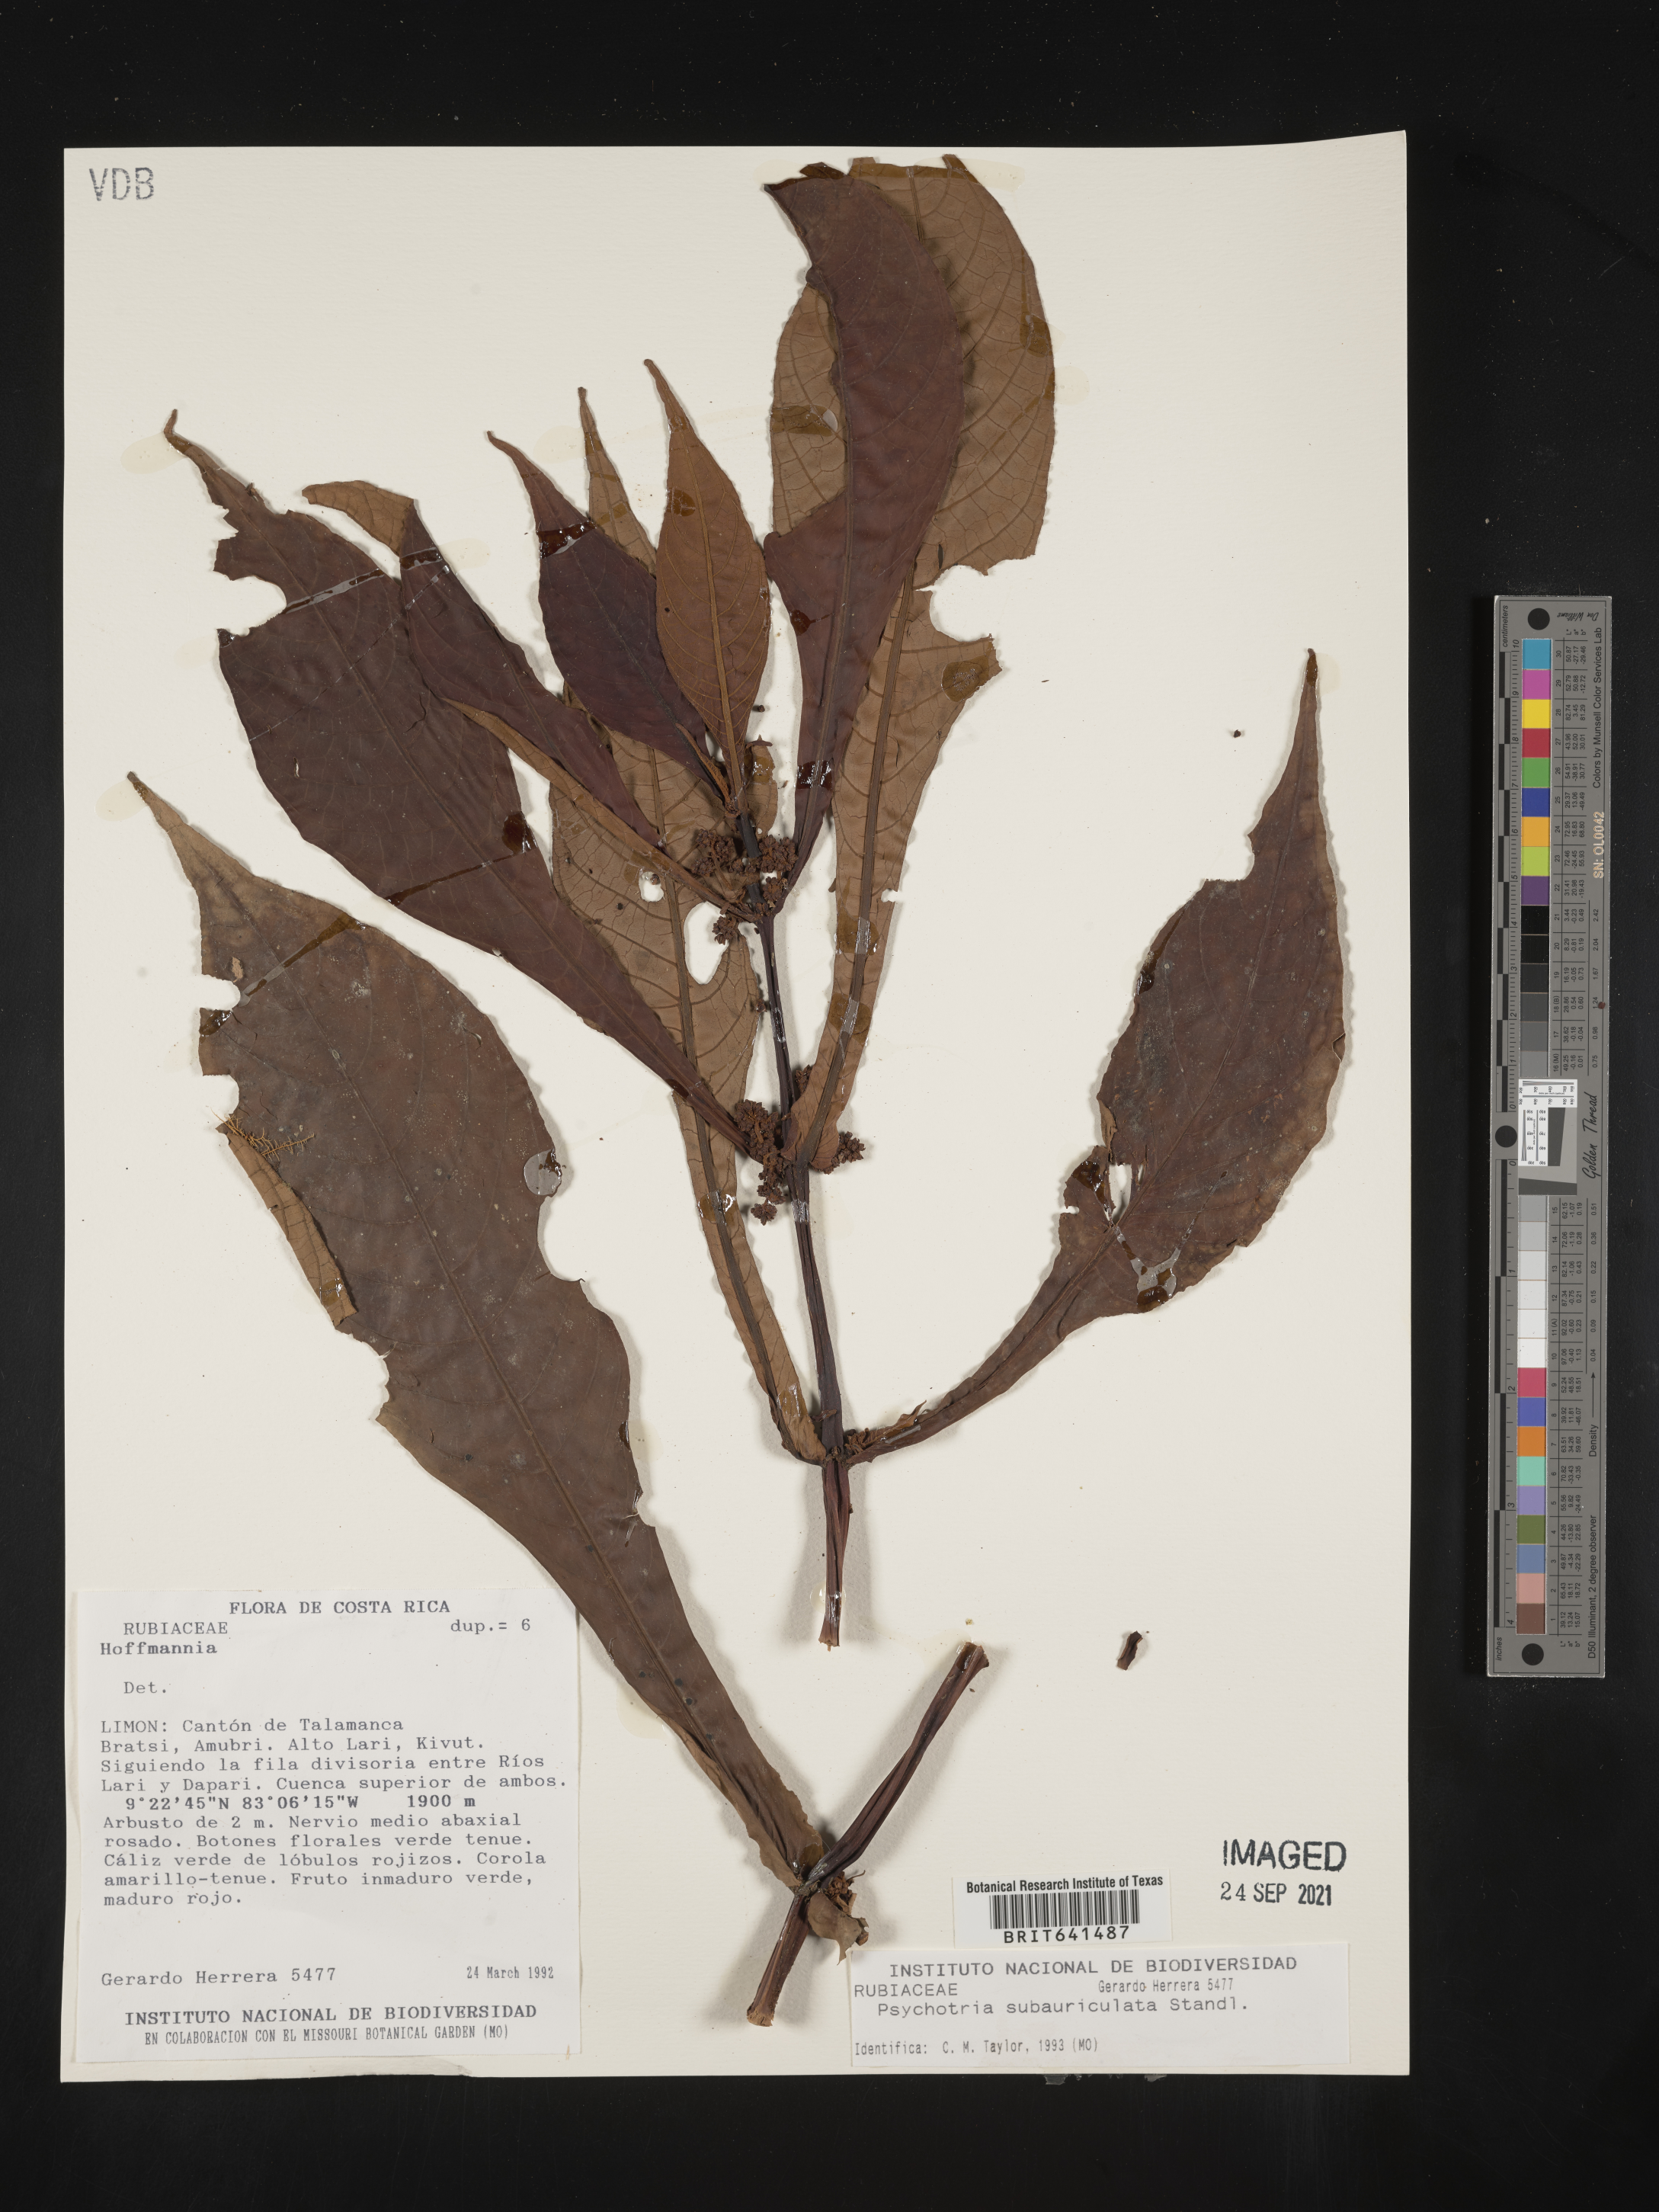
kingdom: Plantae
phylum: Tracheophyta
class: Magnoliopsida
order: Gentianales
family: Rubiaceae
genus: Psychotria
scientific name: Psychotria
